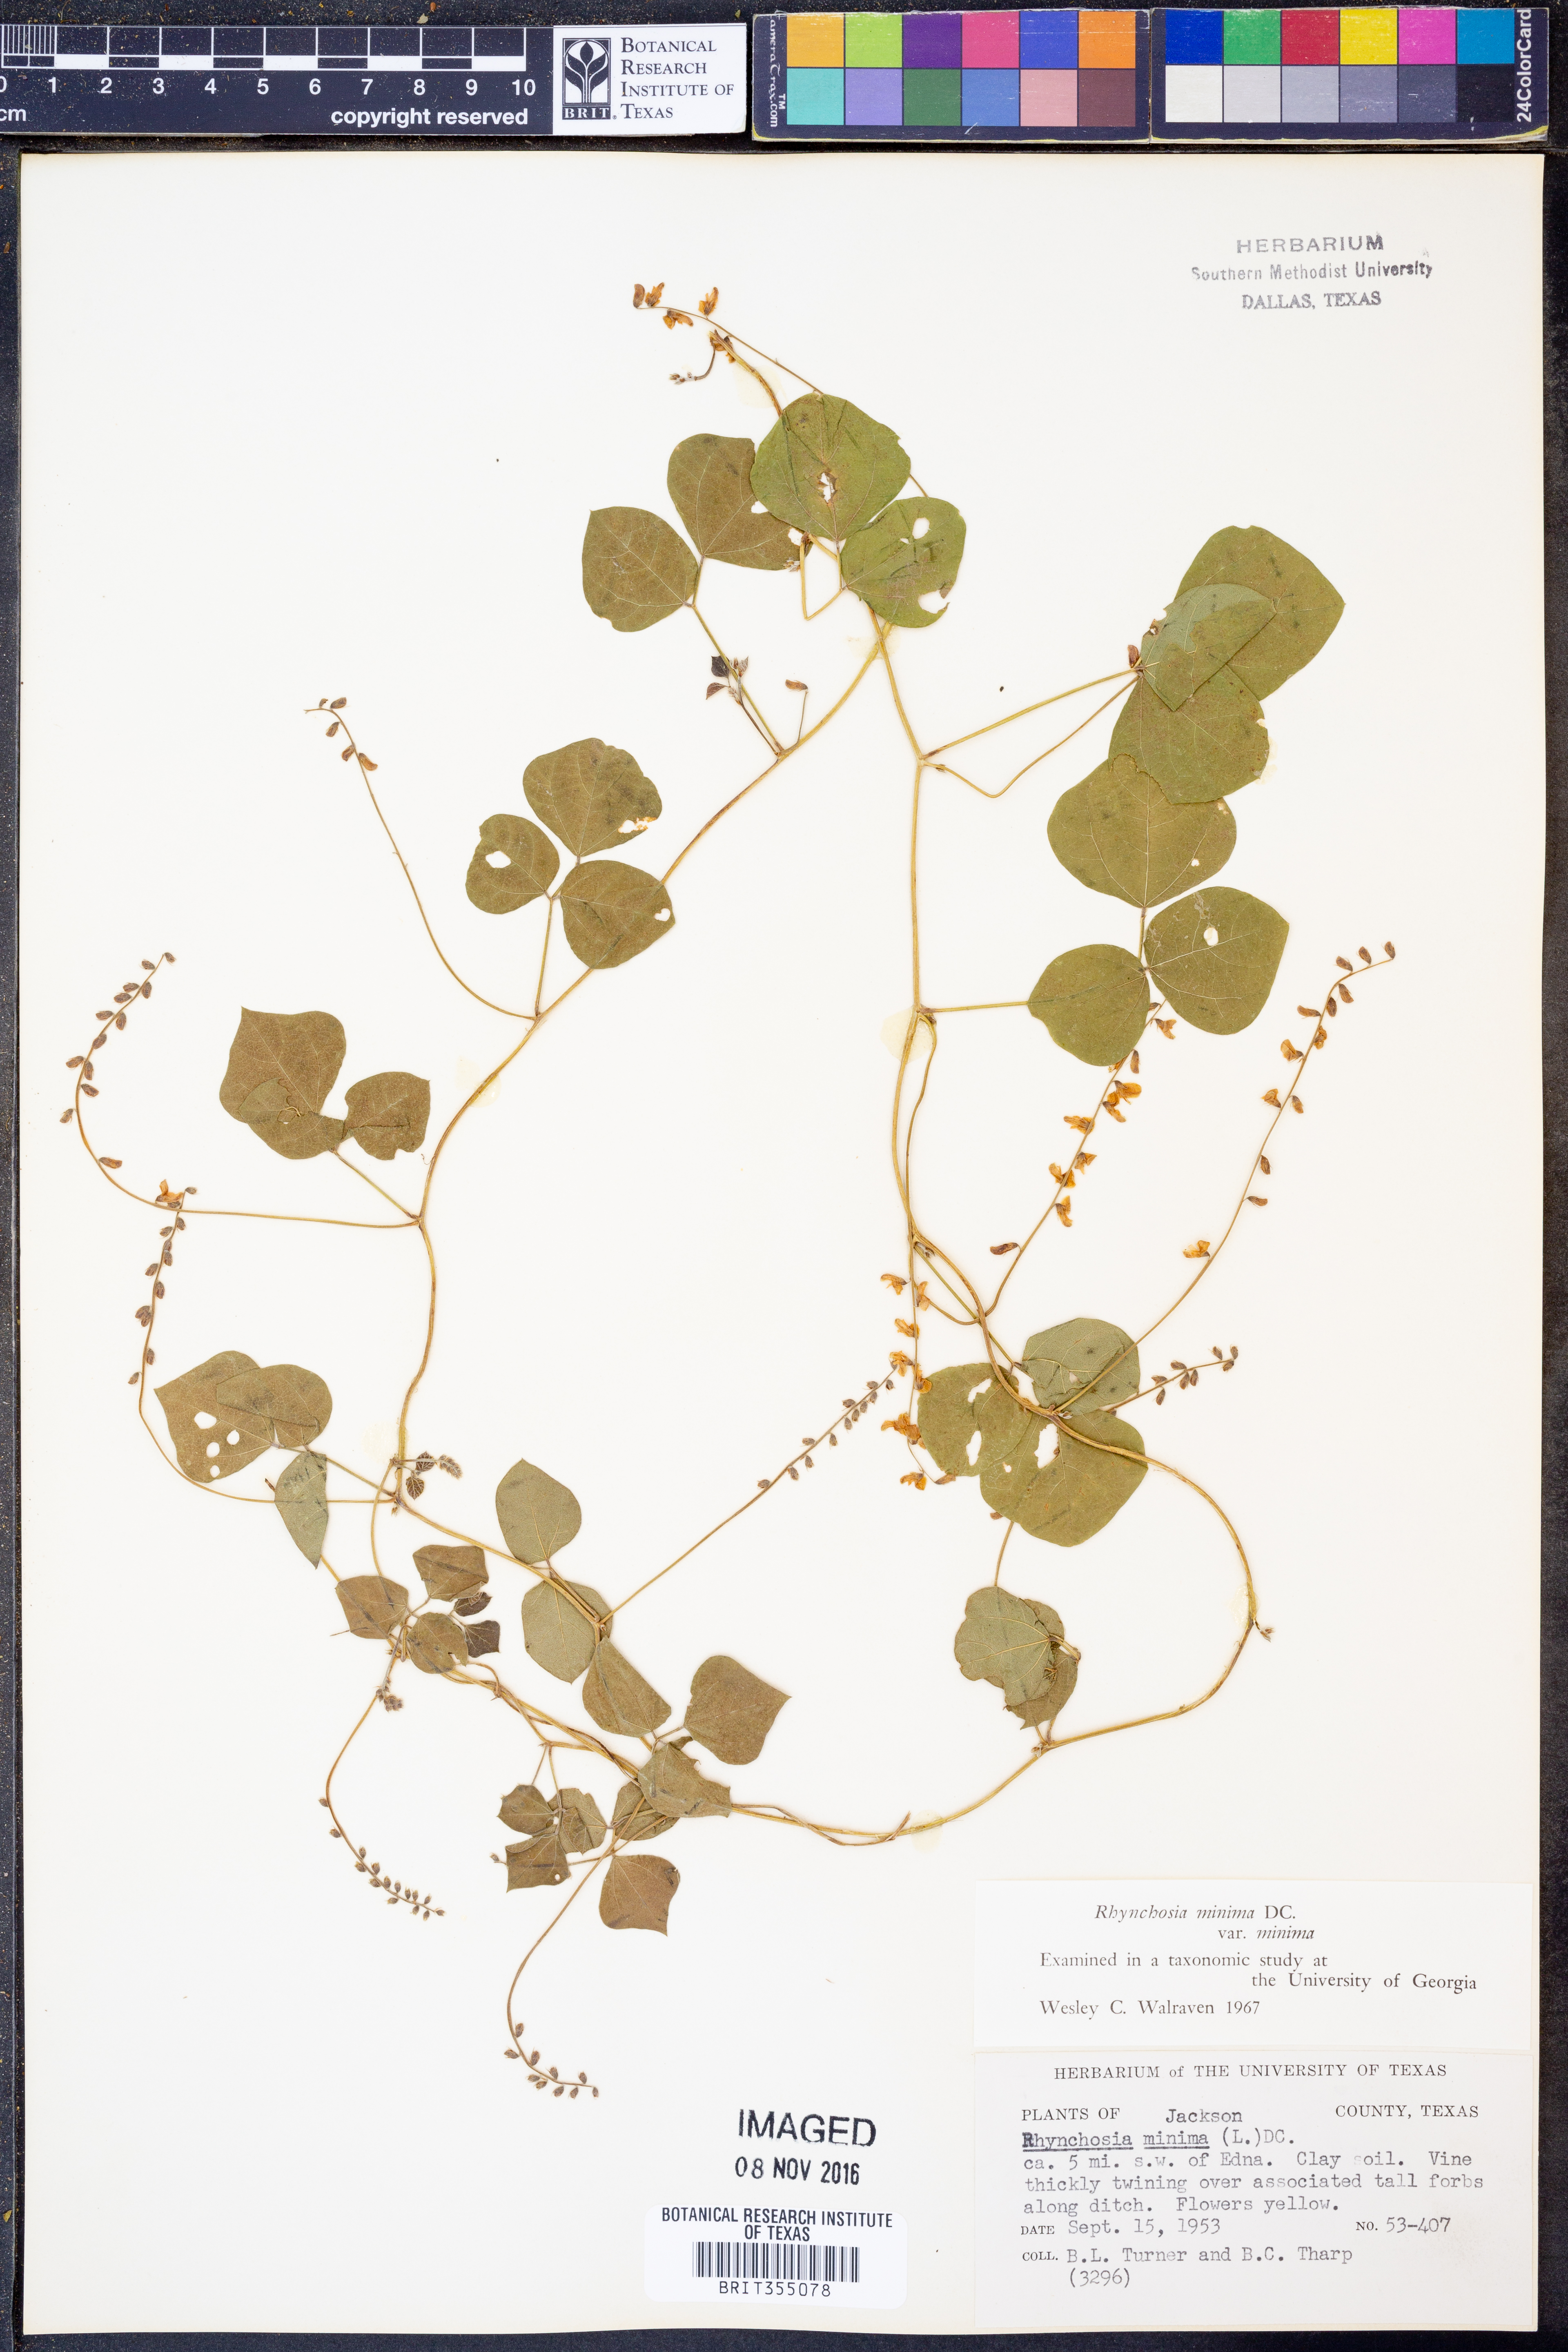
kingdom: Plantae
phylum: Tracheophyta
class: Magnoliopsida
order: Fabales
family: Fabaceae
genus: Rhynchosia
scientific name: Rhynchosia minima
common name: Least snoutbean
